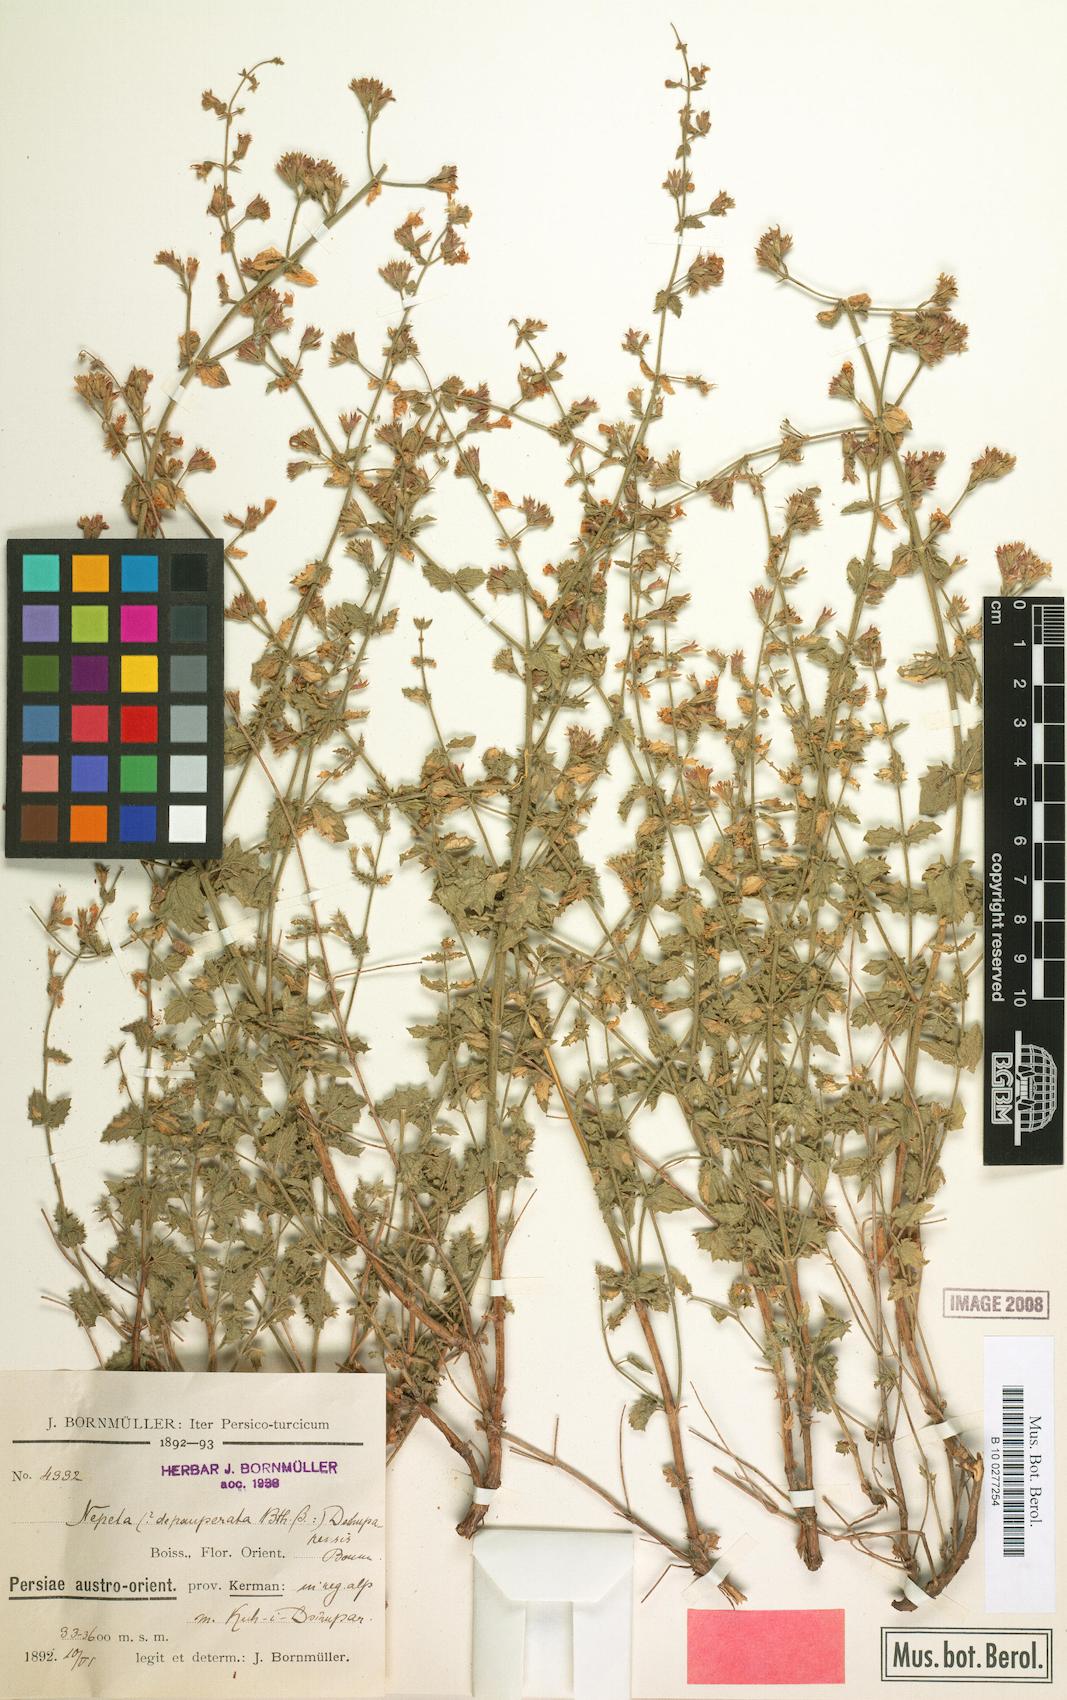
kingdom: Plantae
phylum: Tracheophyta
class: Magnoliopsida
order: Lamiales
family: Lamiaceae
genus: Nepeta
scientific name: Nepeta dschuparensis
